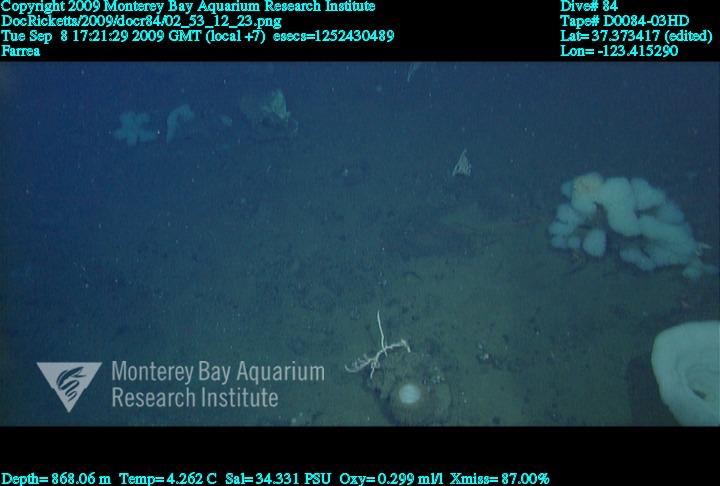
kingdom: Animalia
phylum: Porifera
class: Hexactinellida
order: Sceptrulophora
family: Farreidae
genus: Farrea
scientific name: Farrea
